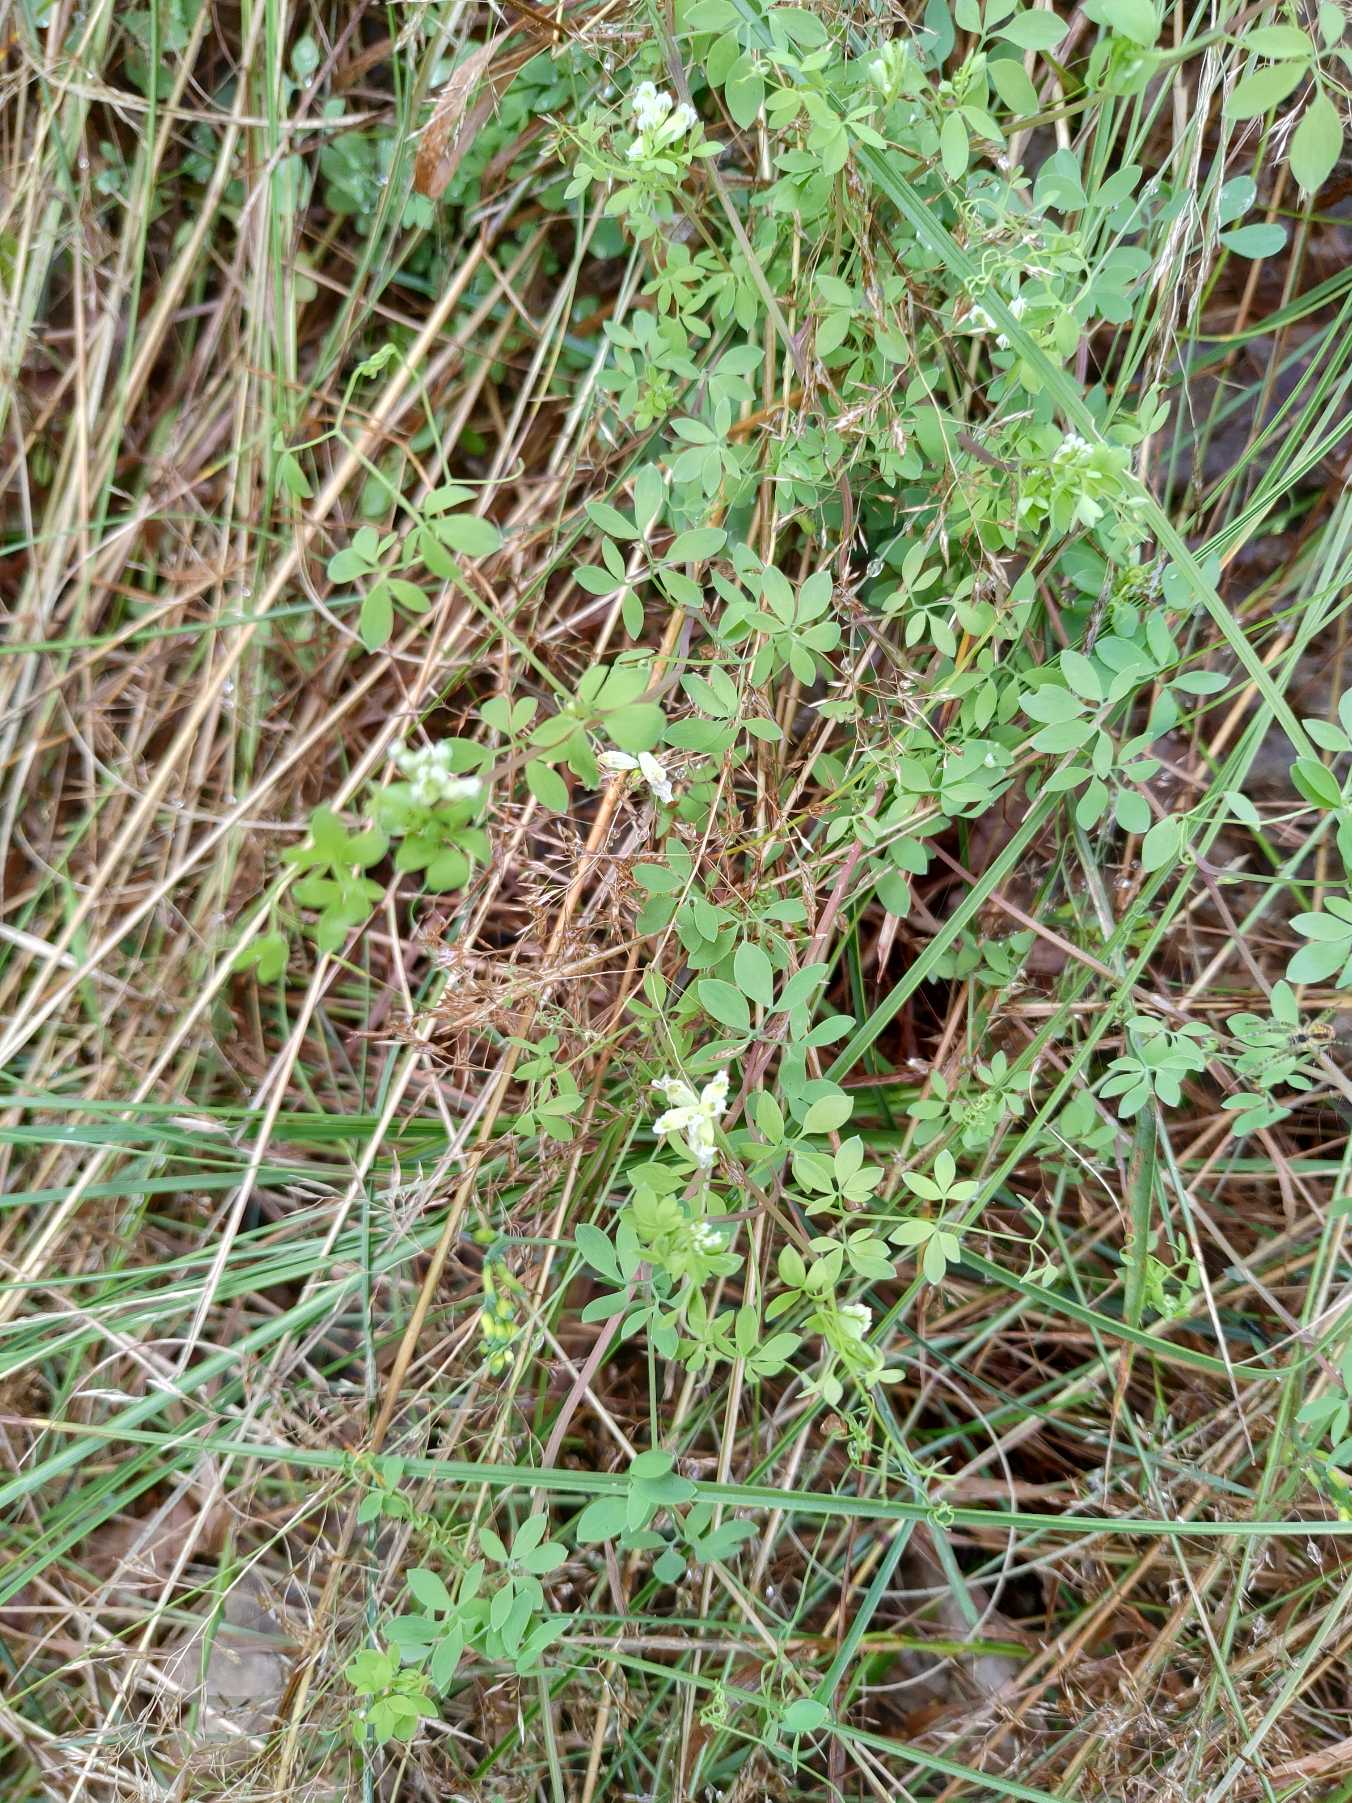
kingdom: Plantae
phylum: Tracheophyta
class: Magnoliopsida
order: Ranunculales
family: Papaveraceae
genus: Ceratocapnos
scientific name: Ceratocapnos claviculata
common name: Klatrende lærkespore
